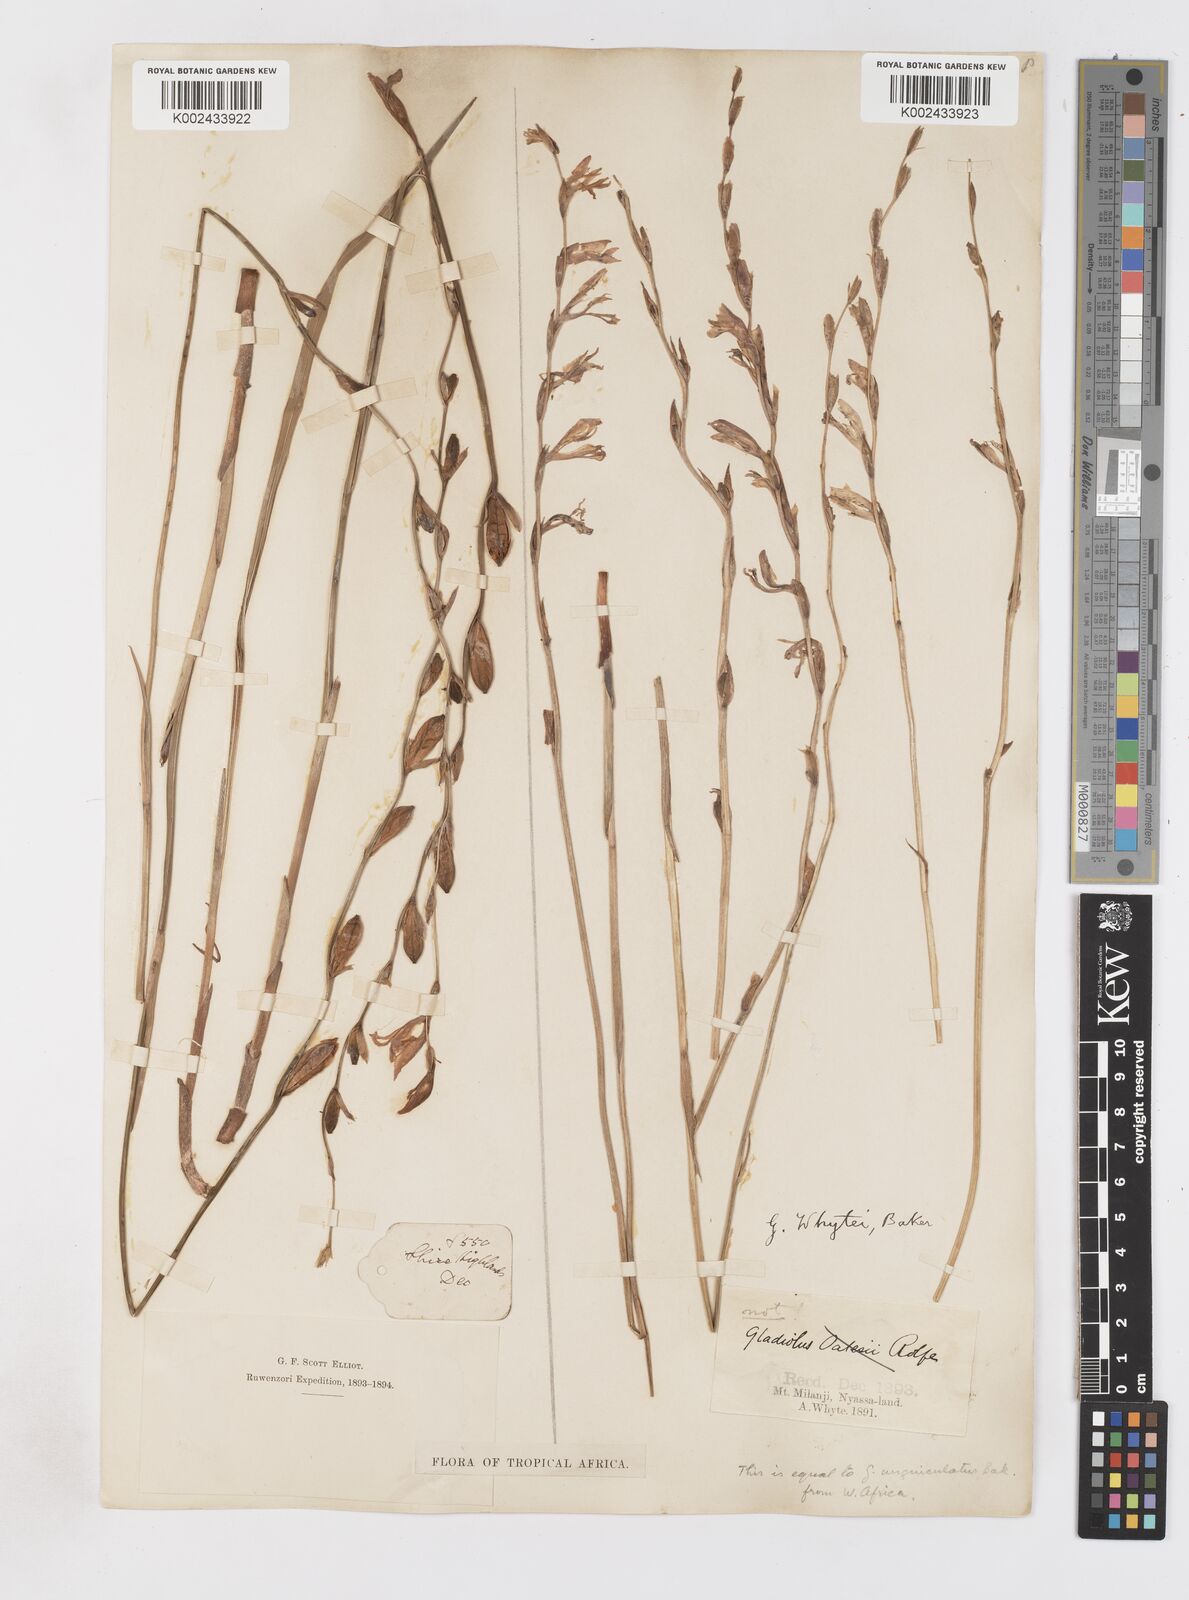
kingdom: Plantae
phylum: Tracheophyta
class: Liliopsida
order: Asparagales
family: Iridaceae
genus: Gladiolus
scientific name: Gladiolus atropurpureus
